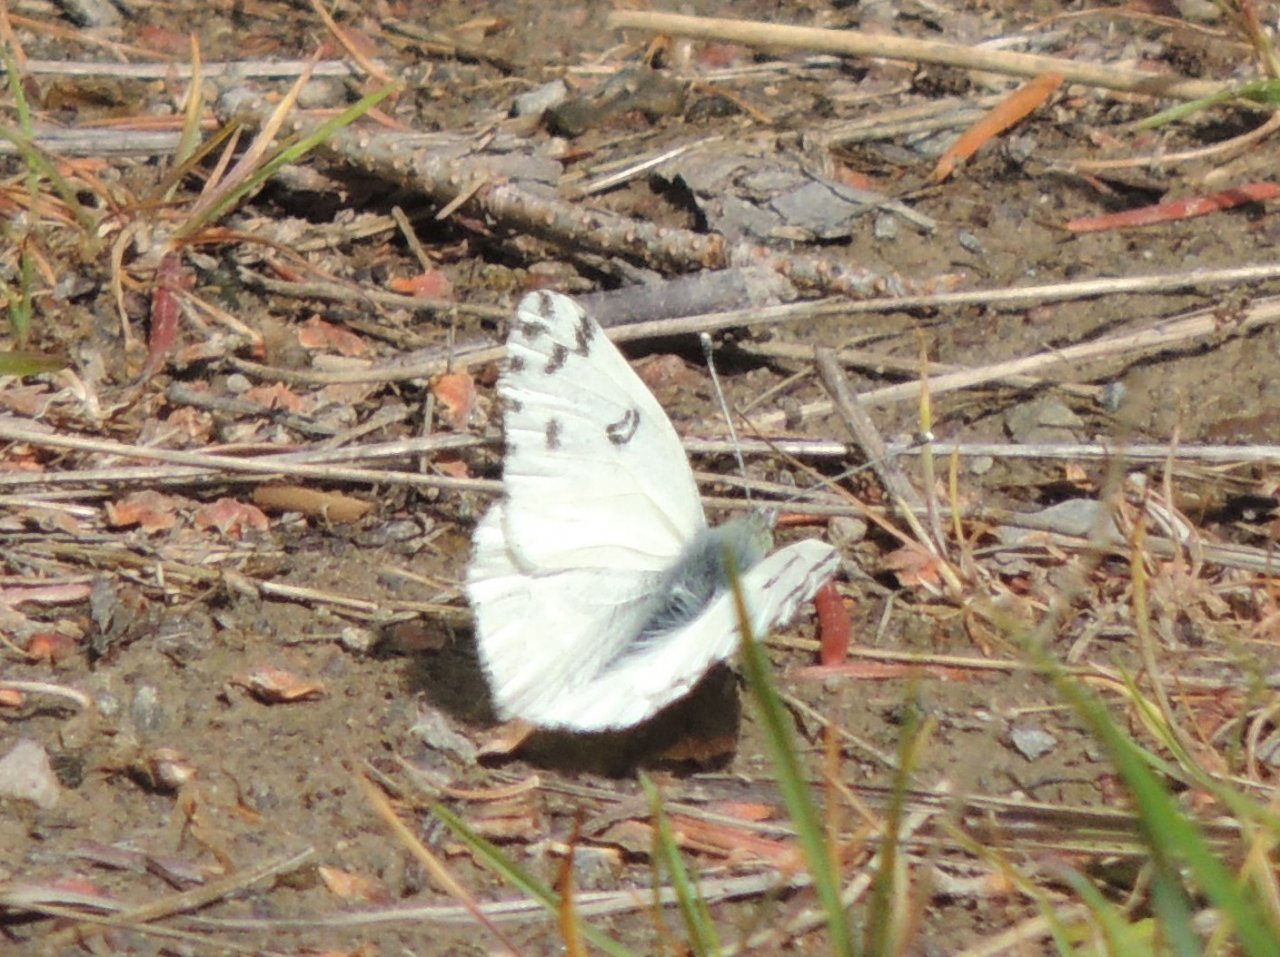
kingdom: Animalia
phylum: Arthropoda
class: Insecta
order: Lepidoptera
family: Pieridae
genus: Pontia
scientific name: Pontia occidentalis
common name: Western White
